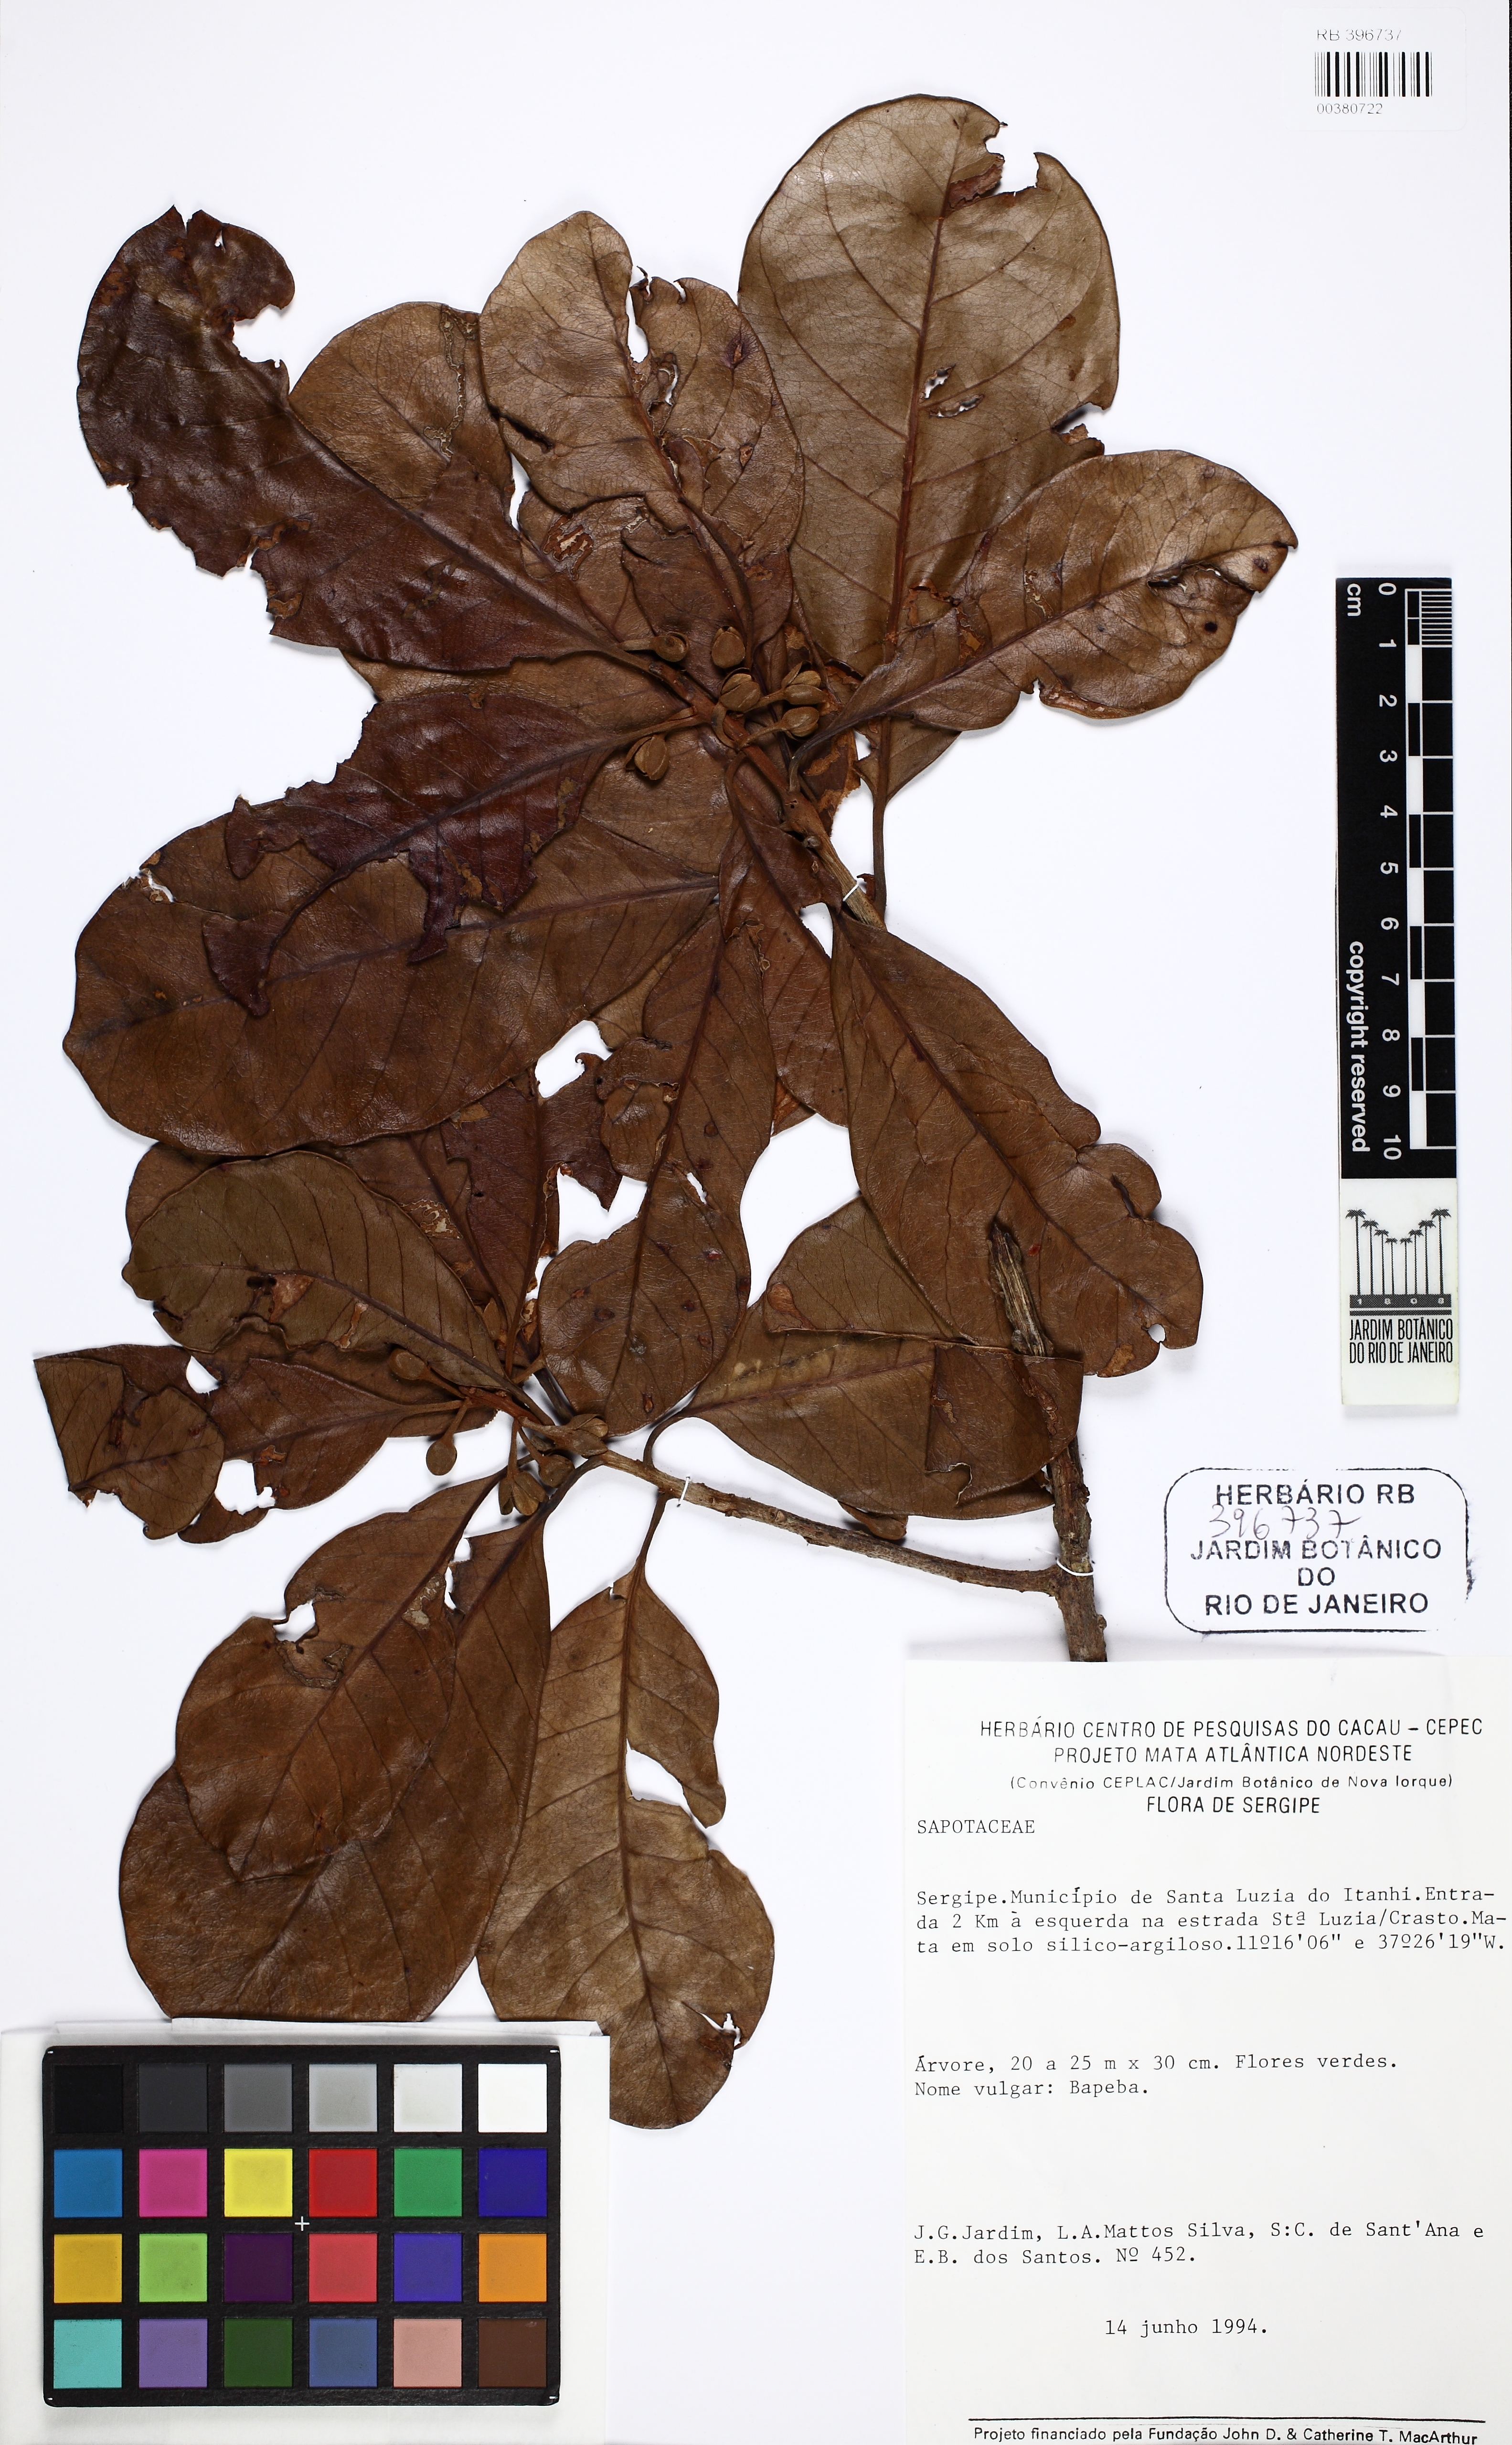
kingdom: Plantae
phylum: Tracheophyta
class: Magnoliopsida
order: Ericales
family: Sapotaceae
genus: Pouteria
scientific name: Pouteria venosa
